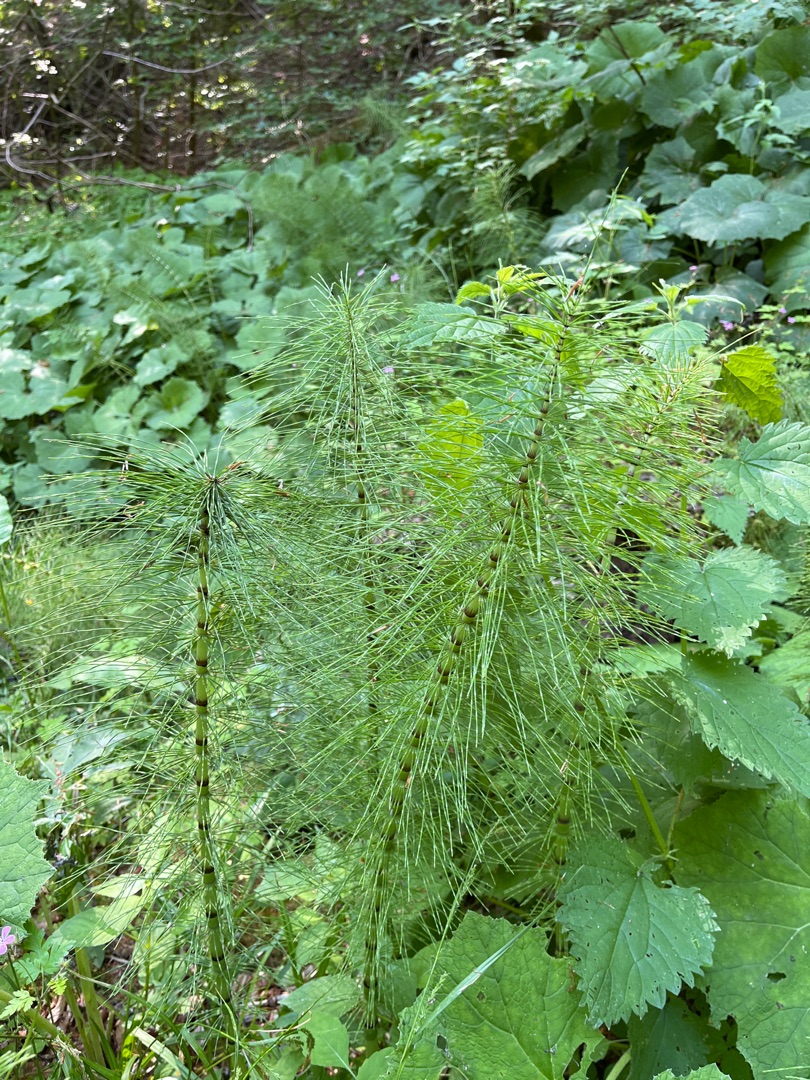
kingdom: Plantae
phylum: Tracheophyta
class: Polypodiopsida
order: Equisetales
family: Equisetaceae
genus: Equisetum
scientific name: Equisetum telmateia
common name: Elfenbens-padderok
